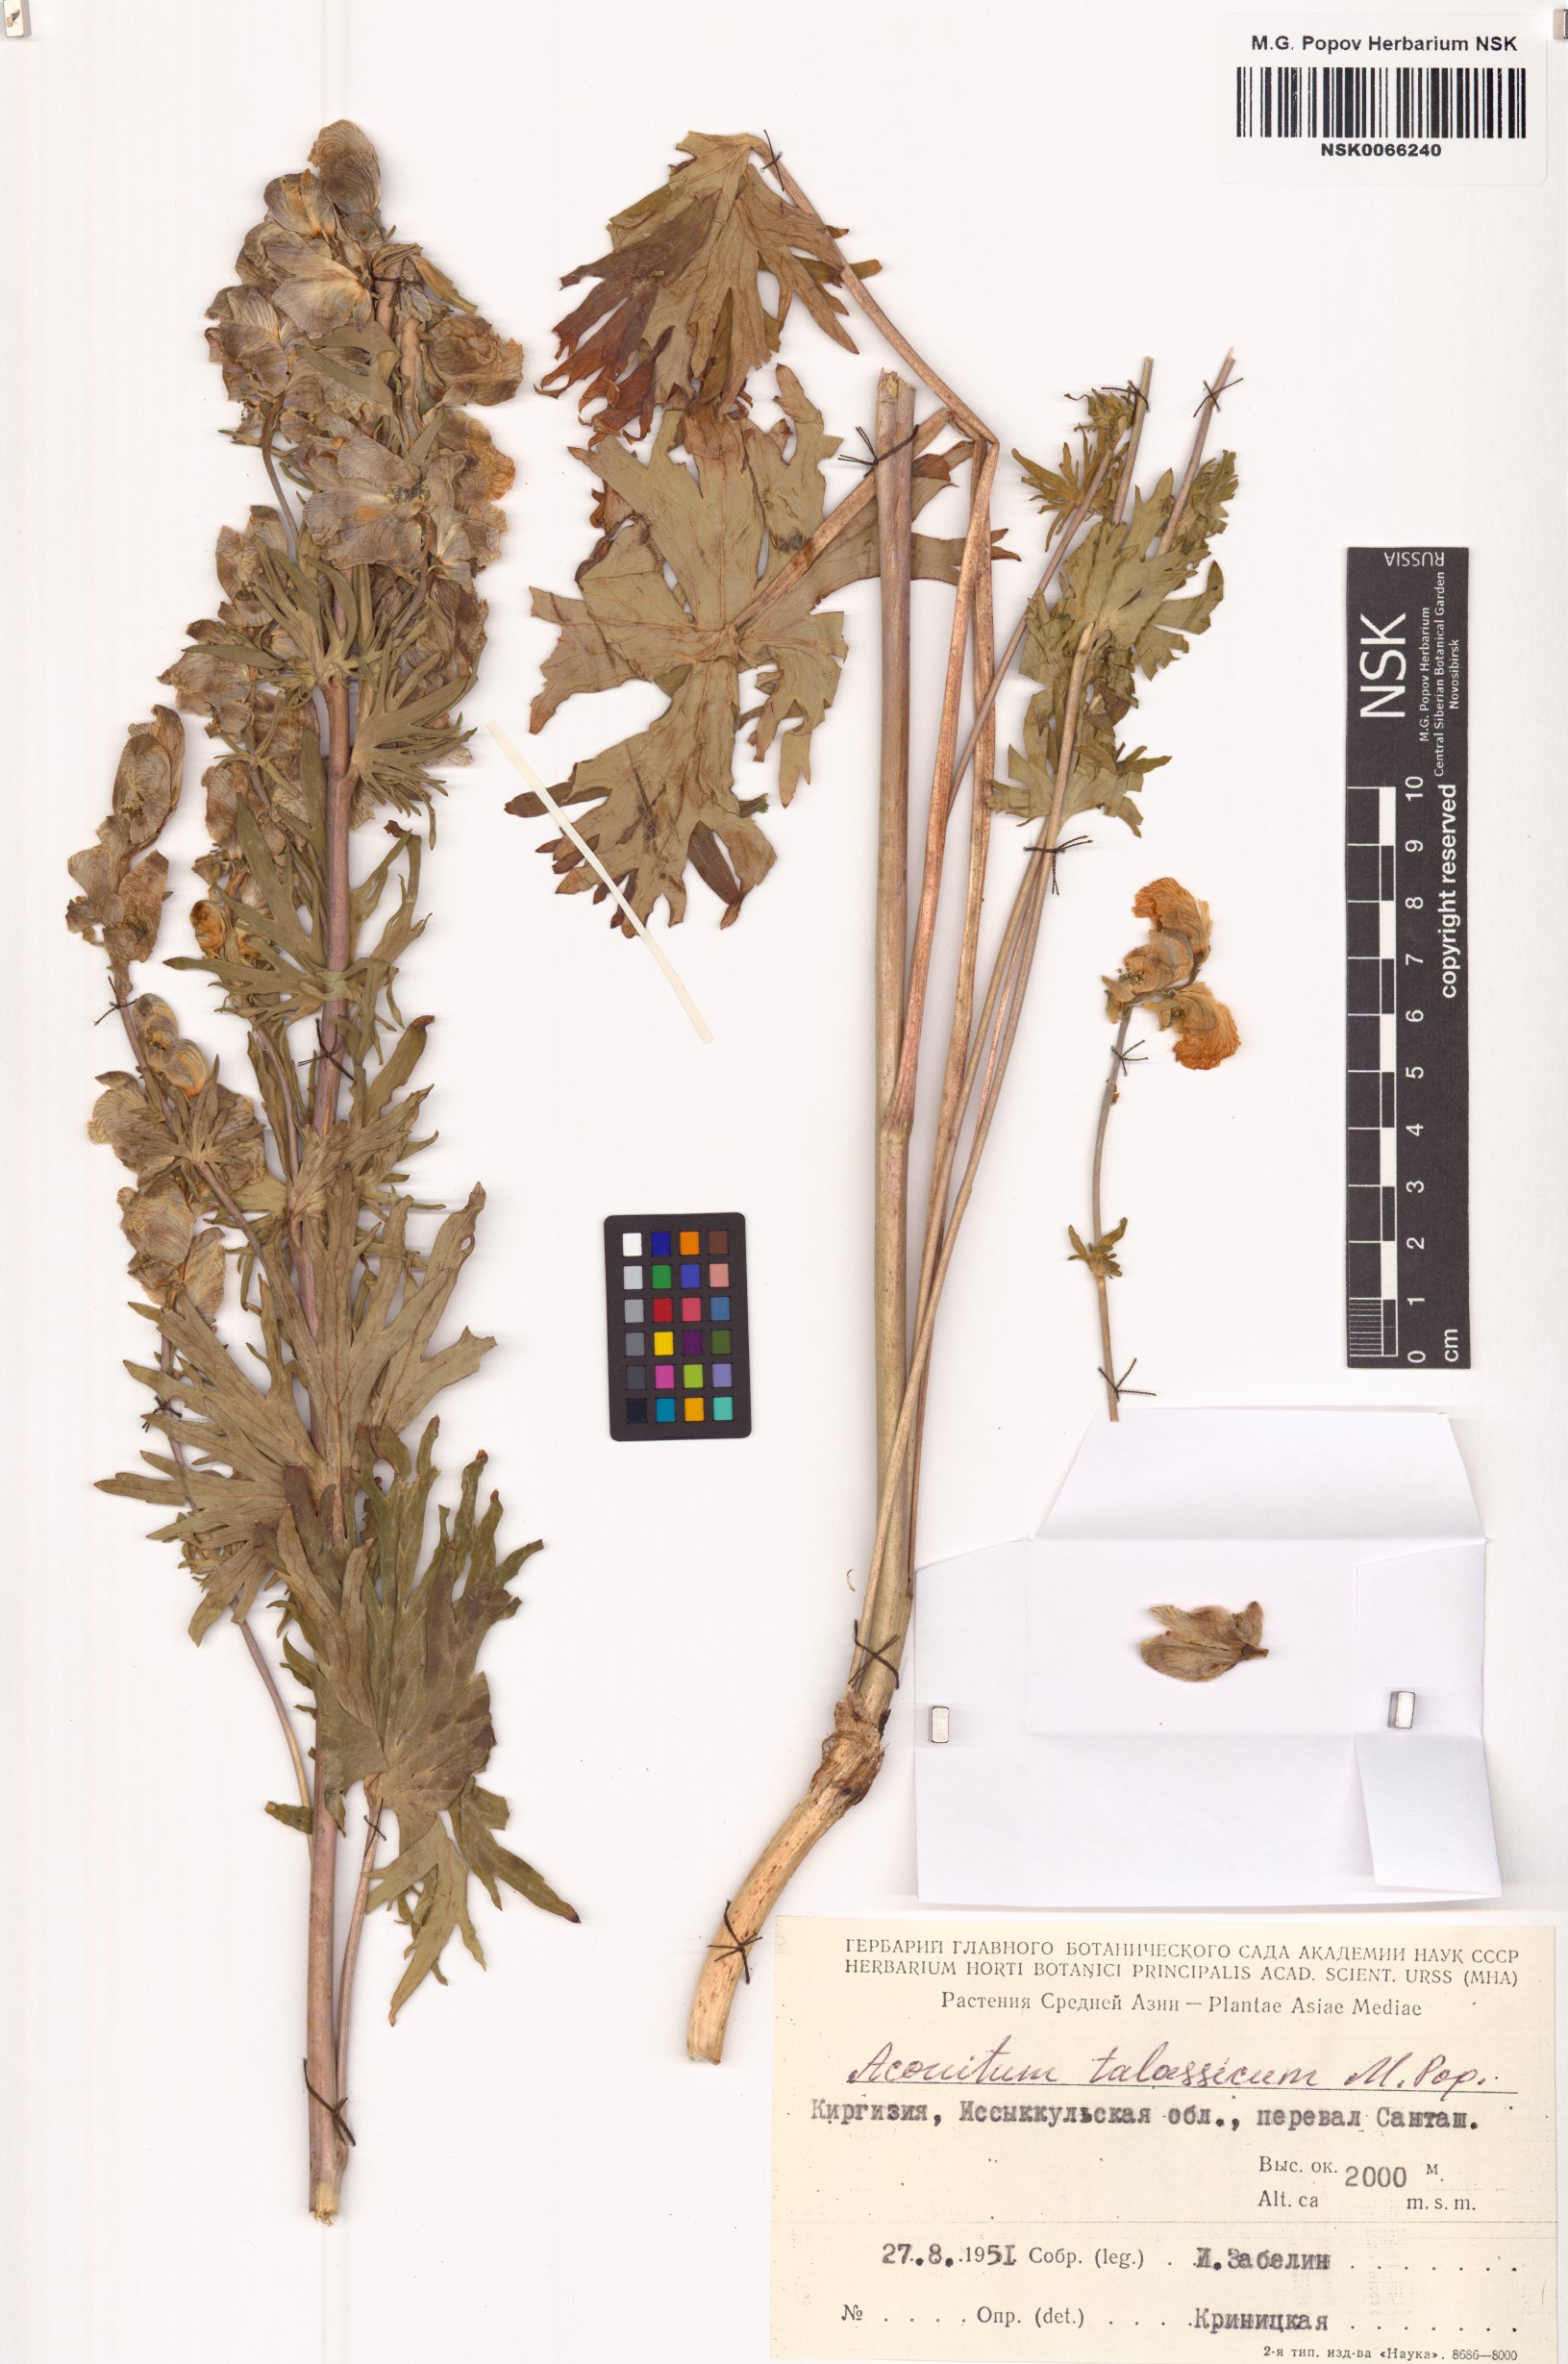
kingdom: Plantae
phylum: Tracheophyta
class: Magnoliopsida
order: Ranunculales
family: Ranunculaceae
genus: Aconitum
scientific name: Aconitum talassicum
